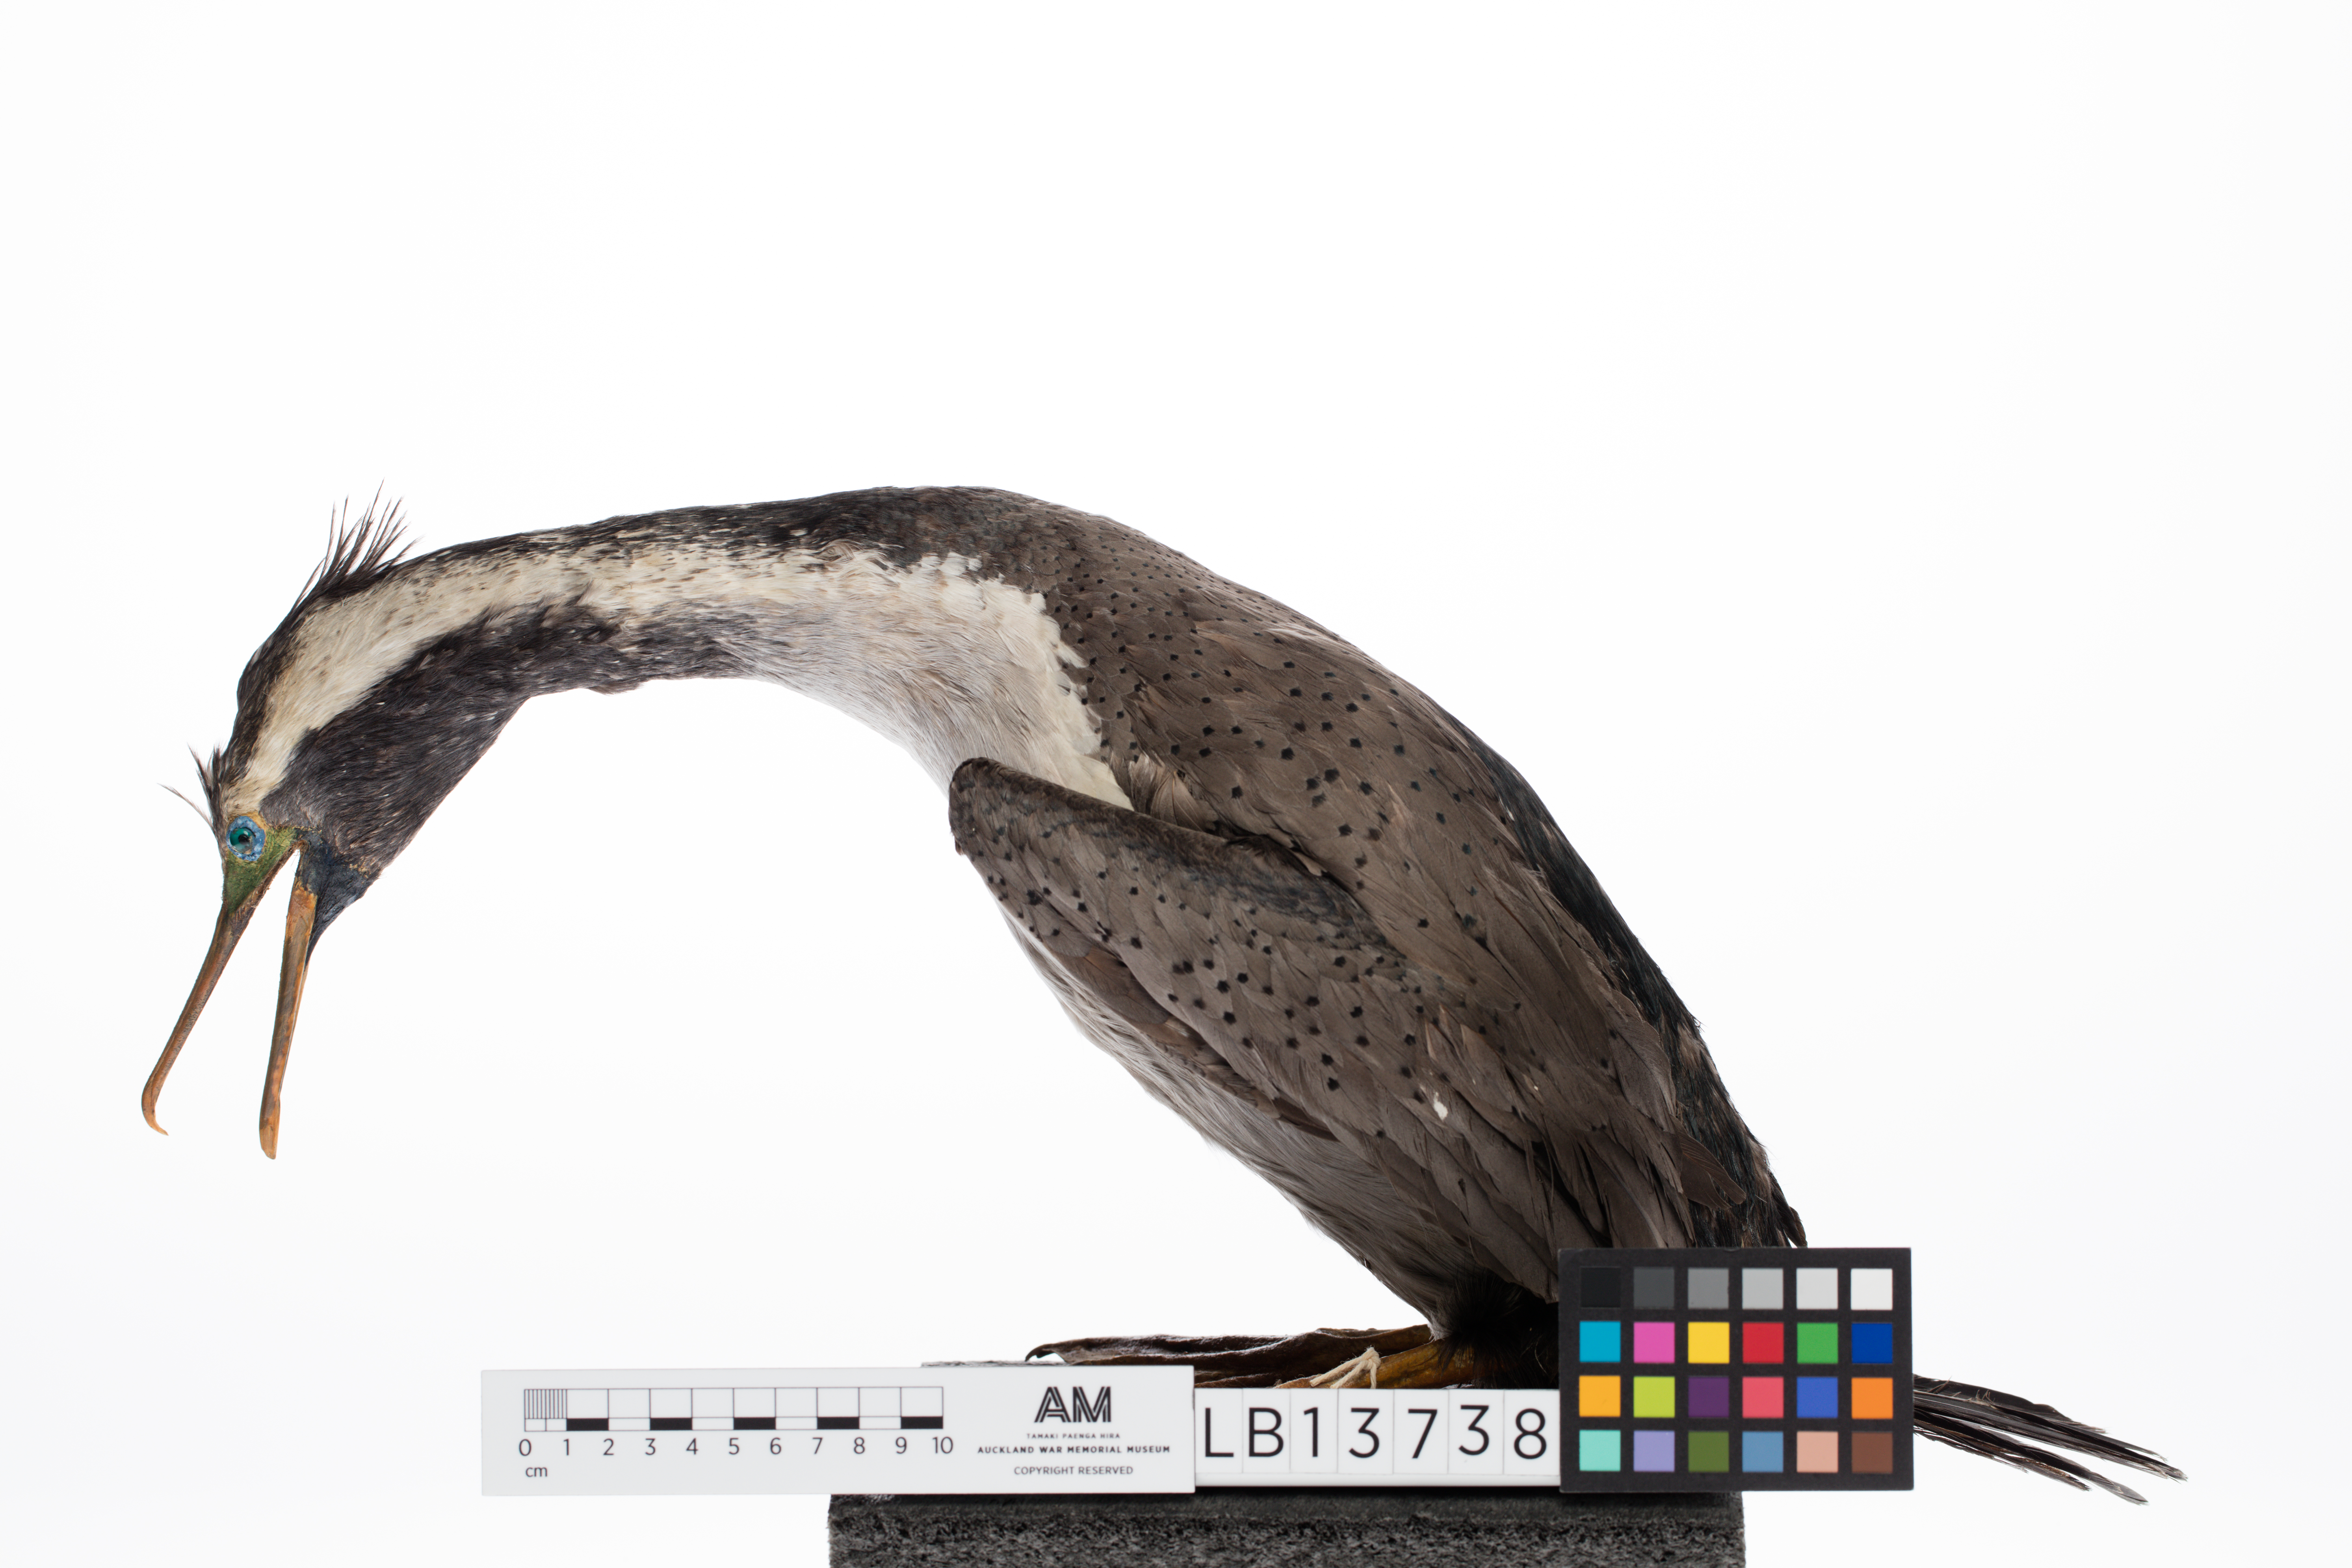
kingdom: Animalia
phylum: Chordata
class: Aves
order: Suliformes
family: Phalacrocoracidae
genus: Phalacrocorax
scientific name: Phalacrocorax punctatus
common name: Spotted shag
